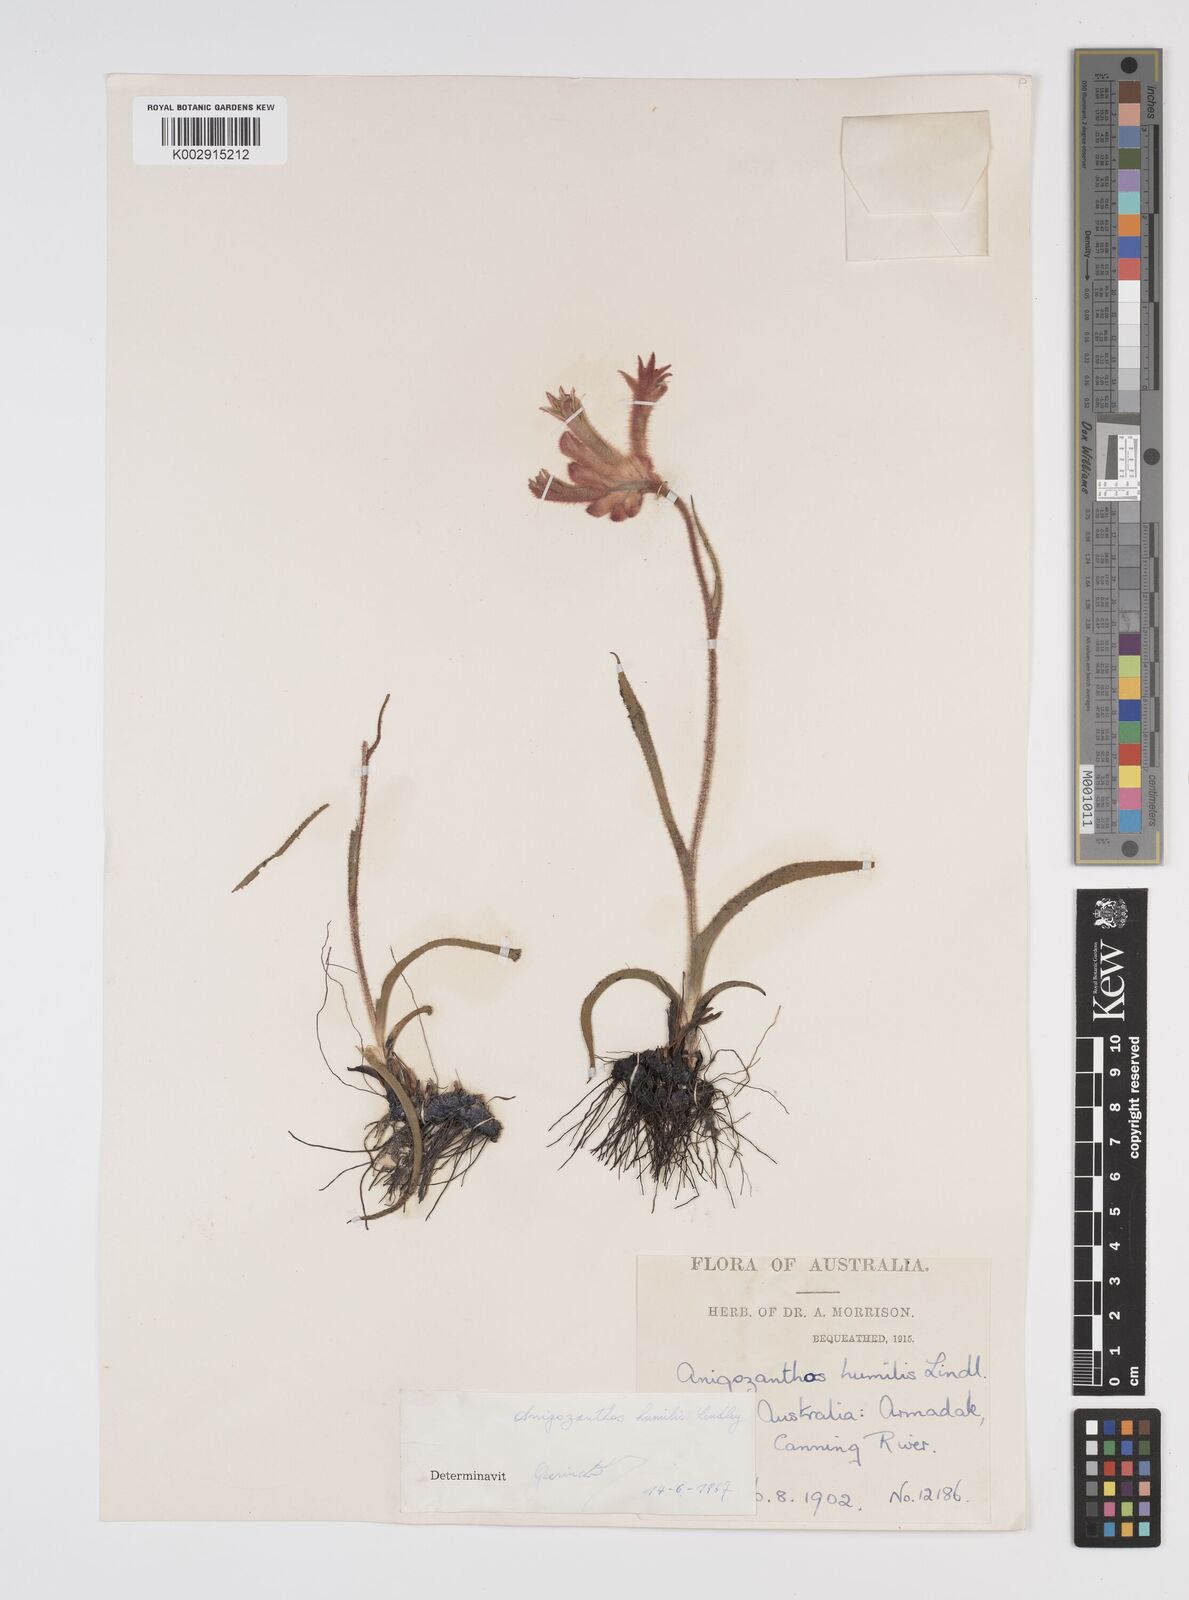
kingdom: Plantae
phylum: Tracheophyta
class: Liliopsida
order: Commelinales
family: Haemodoraceae
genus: Anigozanthos
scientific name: Anigozanthos humilis
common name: Cat's-paw
